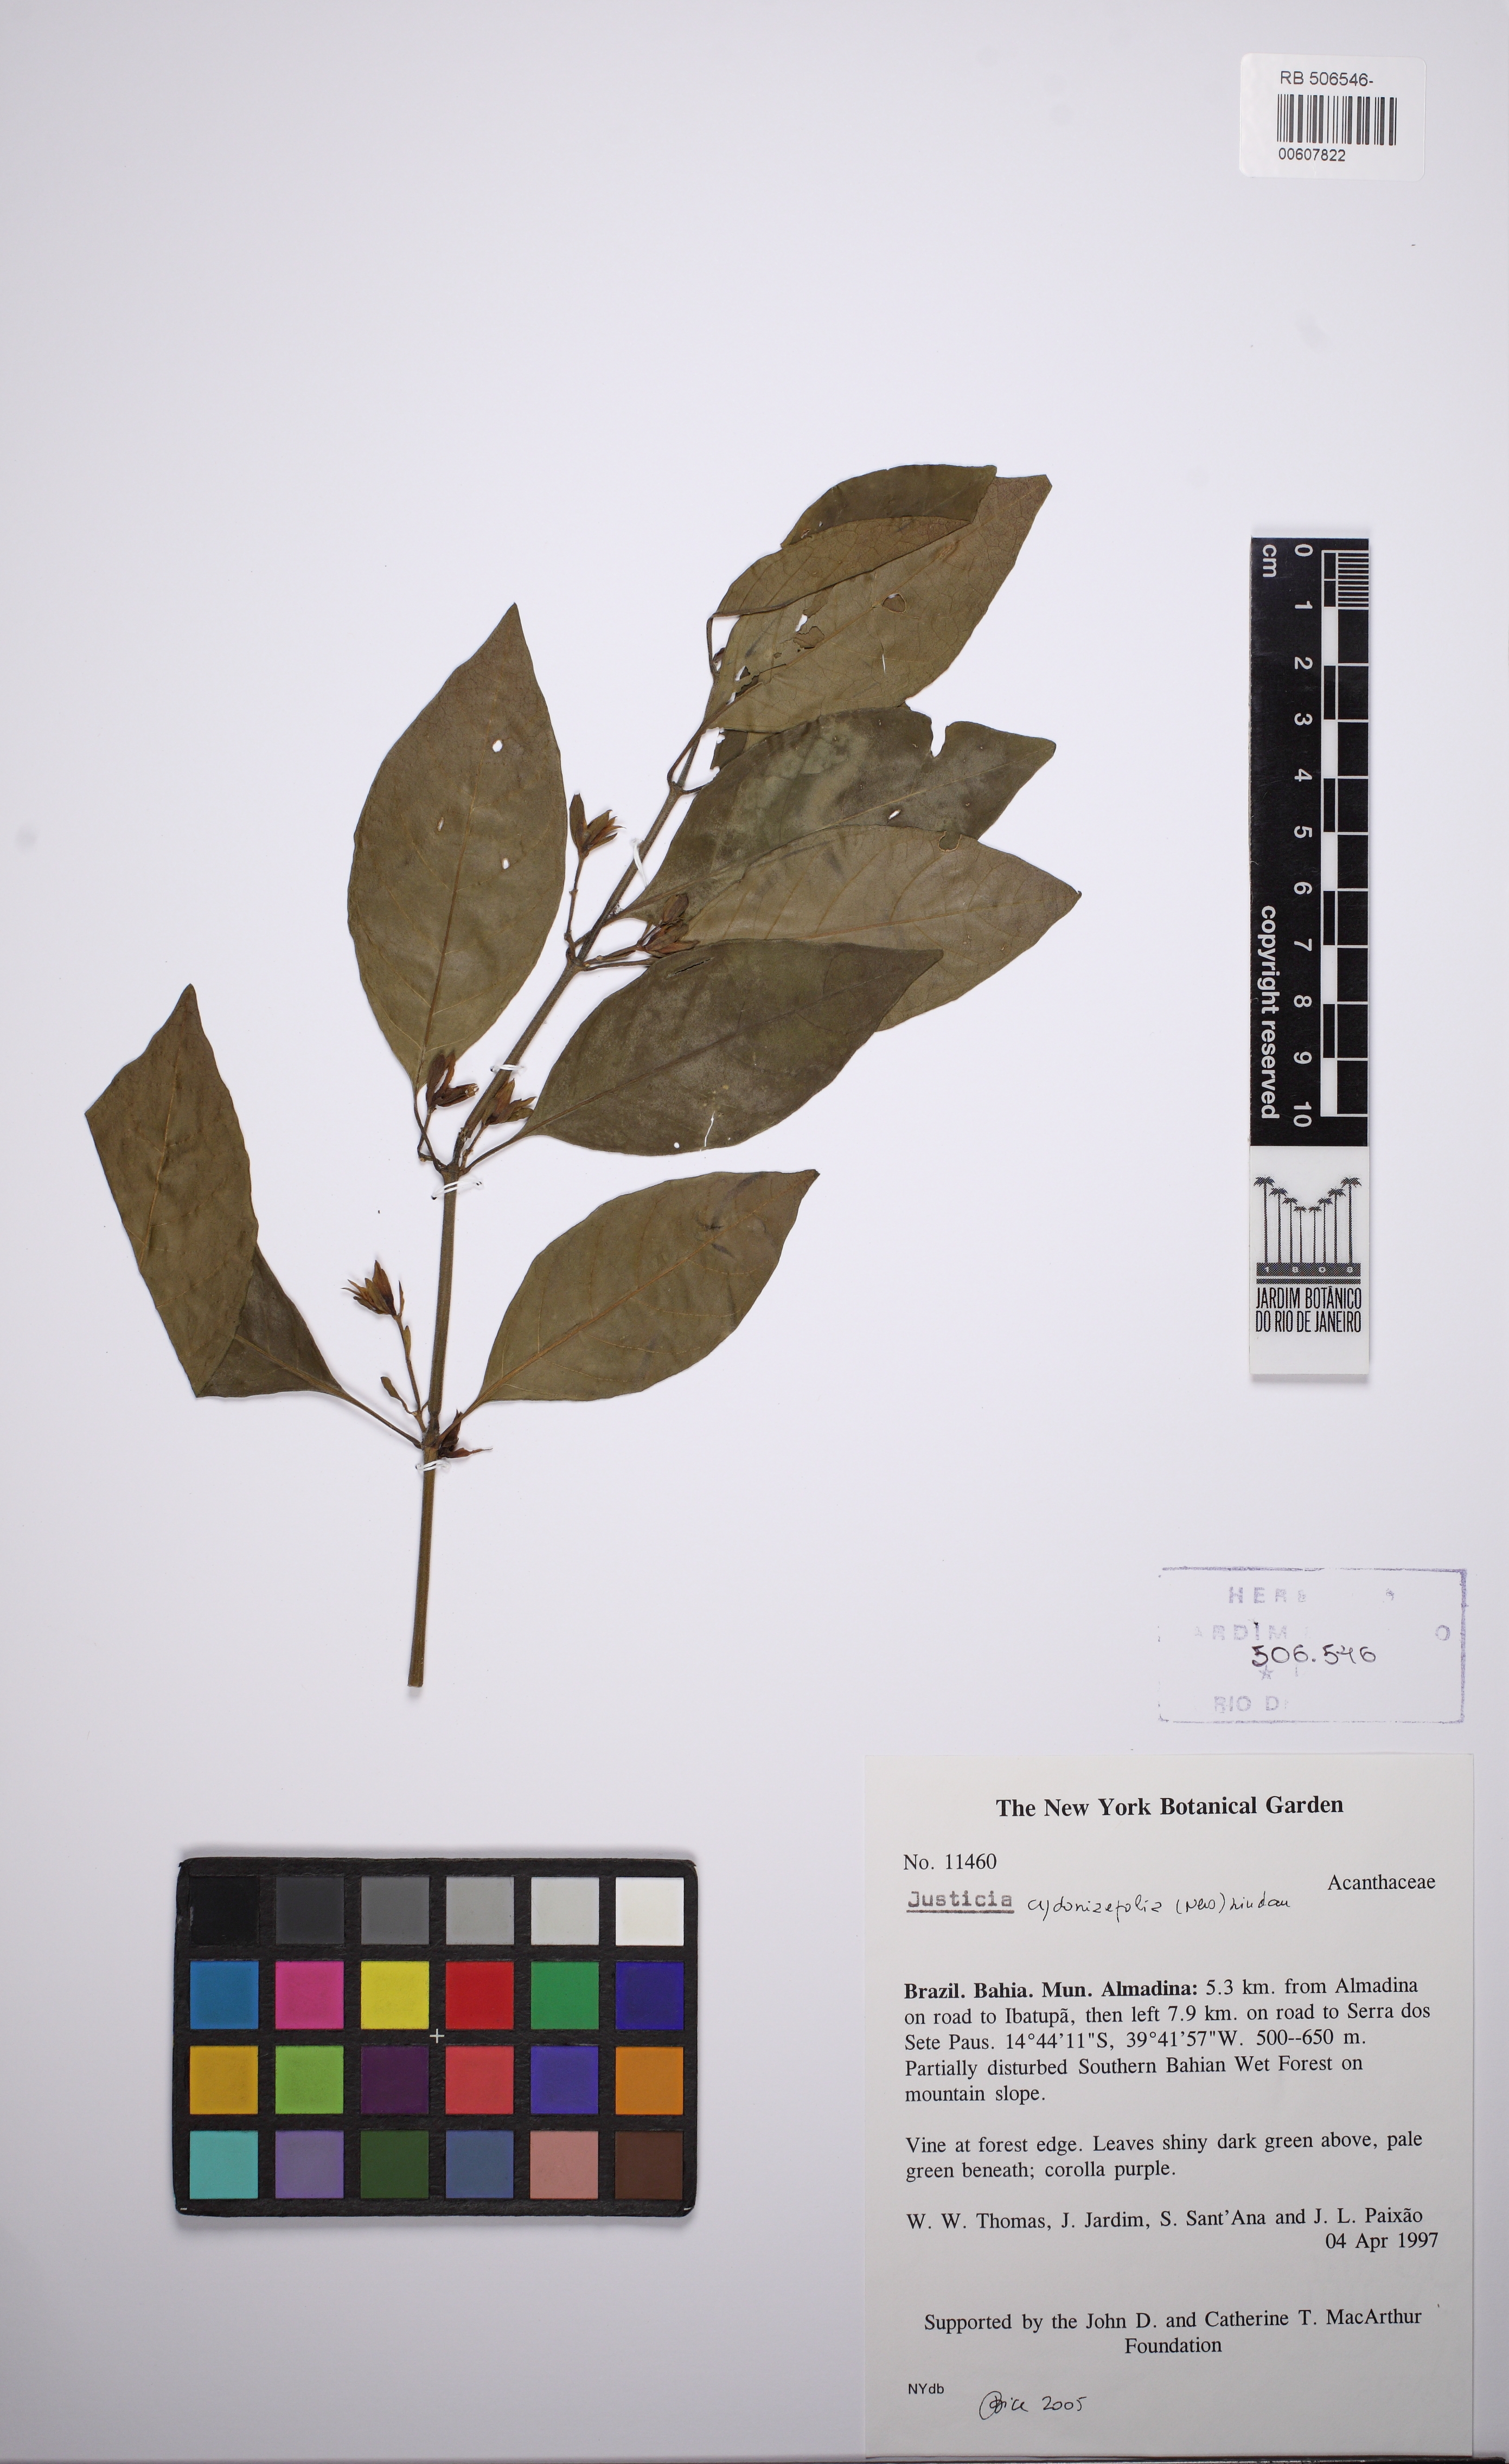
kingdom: Plantae
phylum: Tracheophyta
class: Magnoliopsida
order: Lamiales
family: Acanthaceae
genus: Justicia
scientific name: Justicia cydoniifolia
